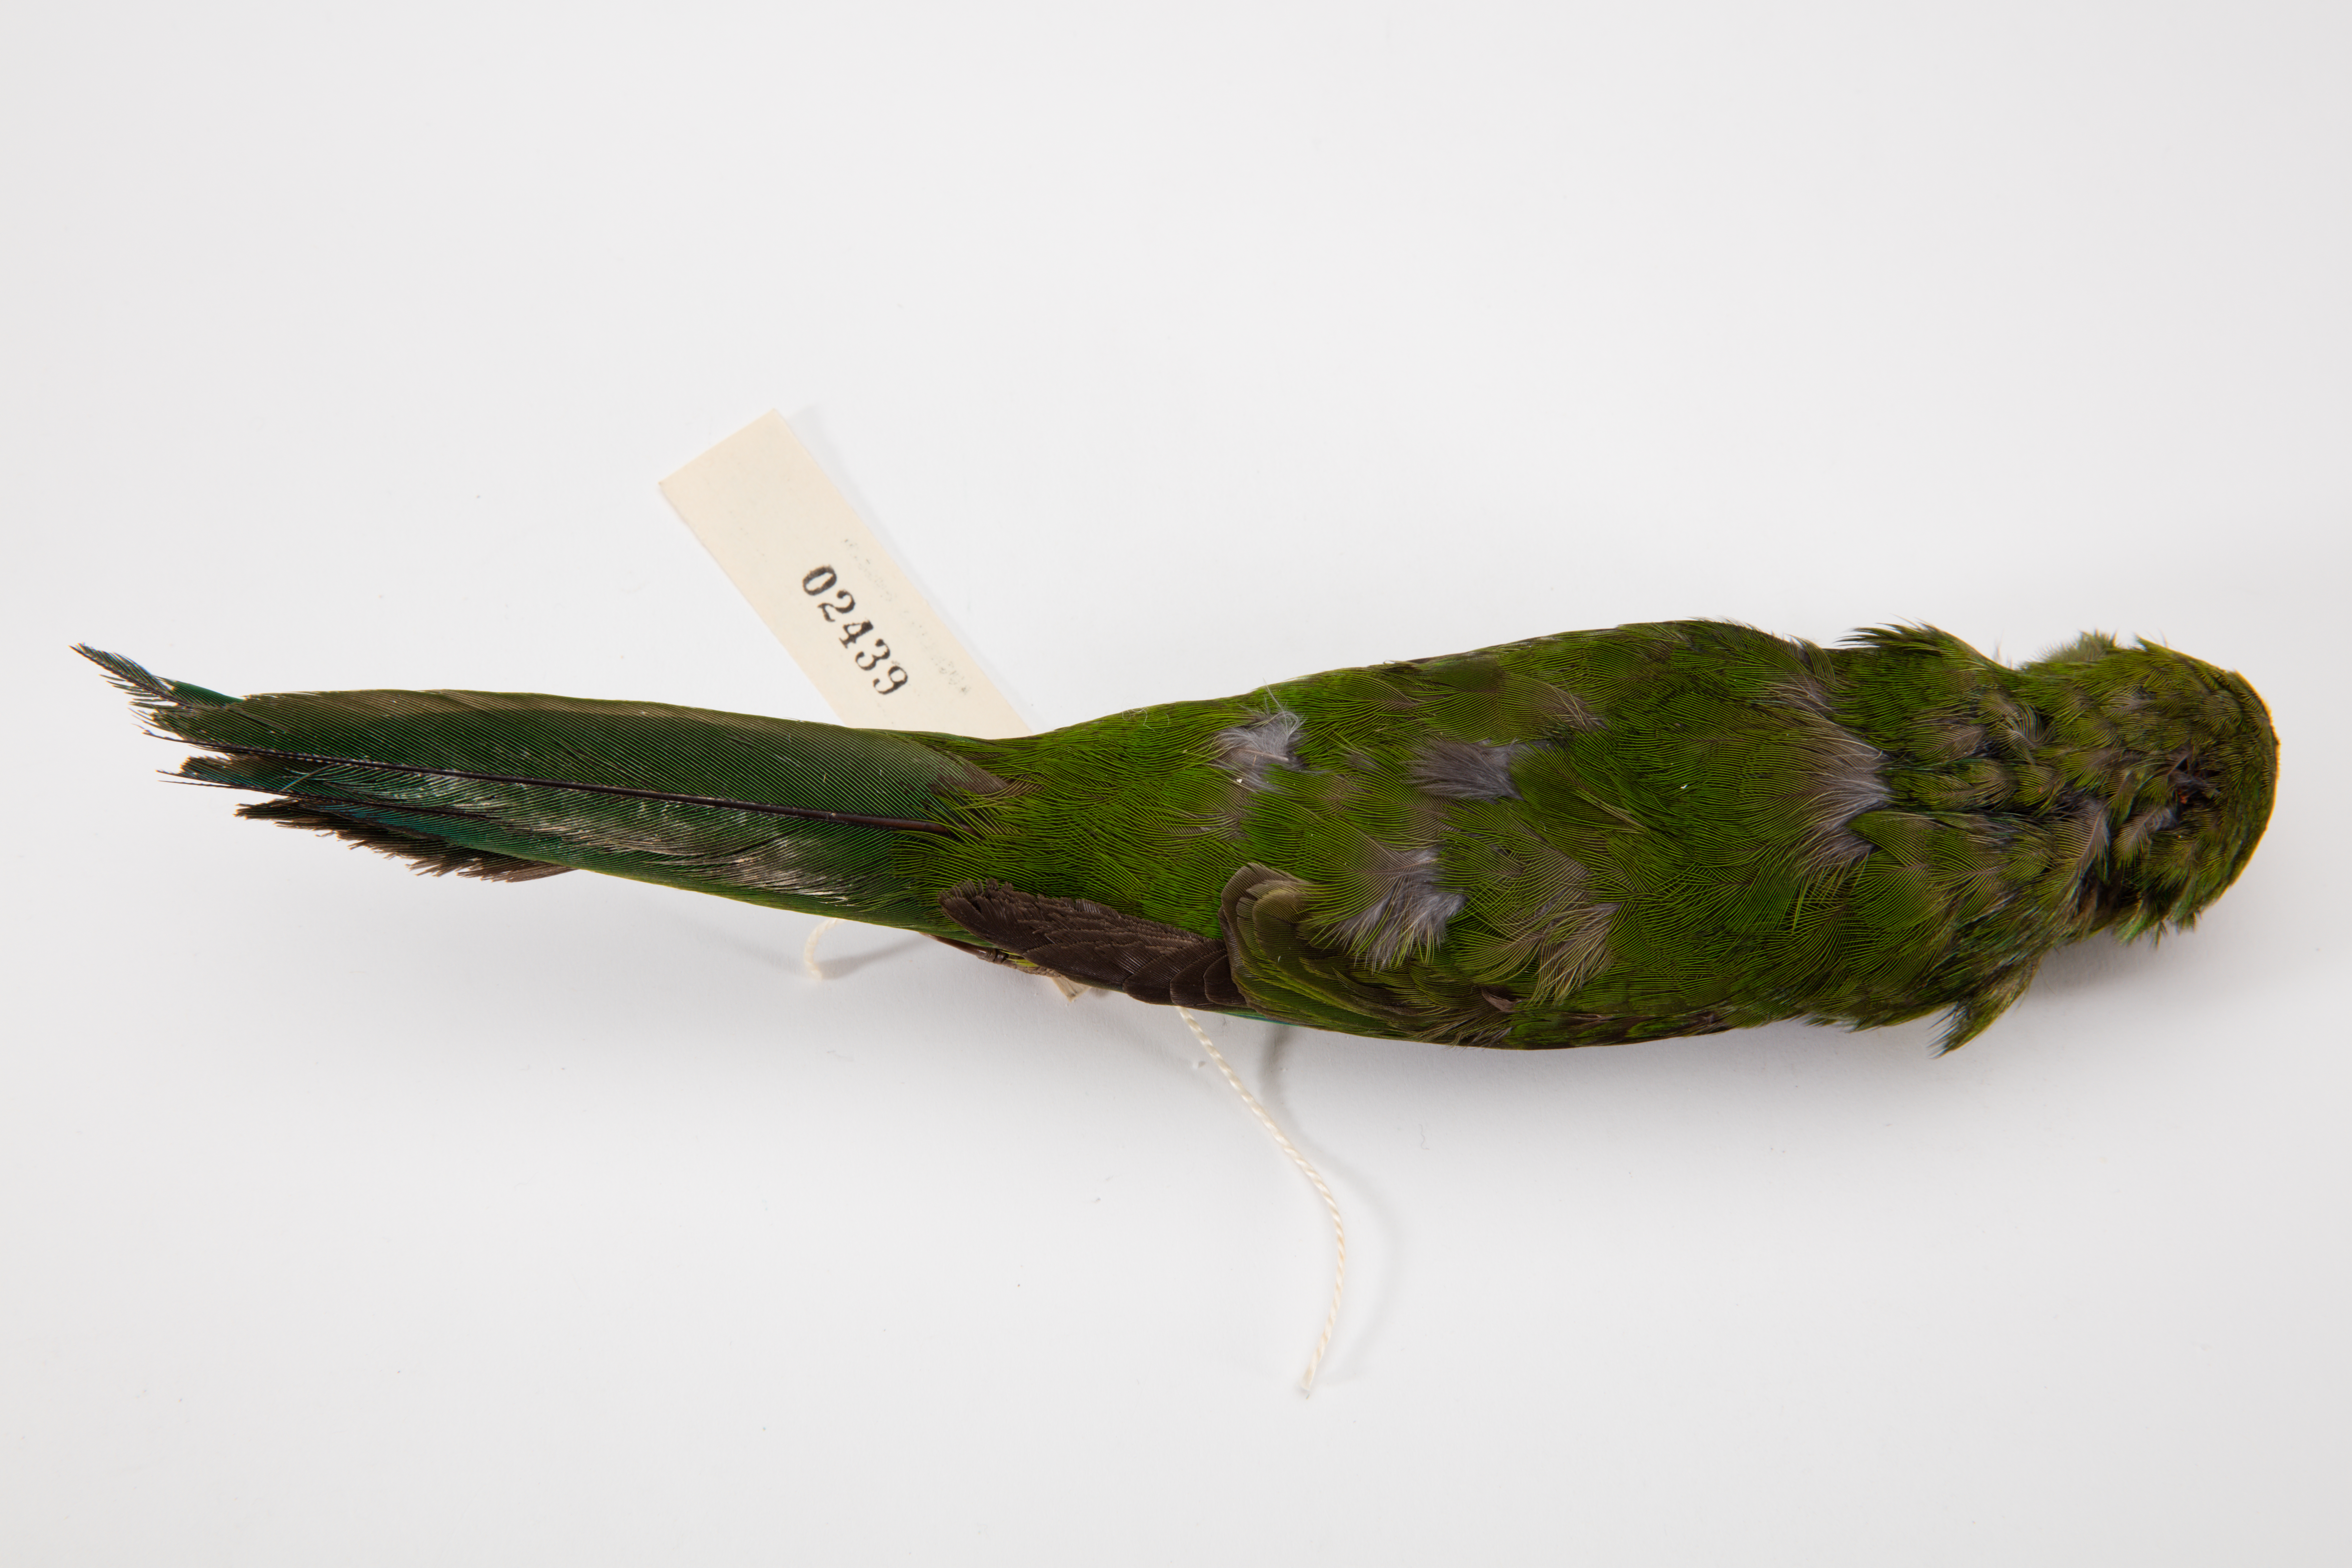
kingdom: Animalia
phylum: Chordata
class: Aves
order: Psittaciformes
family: Psittacidae
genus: Cyanoramphus
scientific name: Cyanoramphus auriceps
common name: Yellow-crowned parakeet
